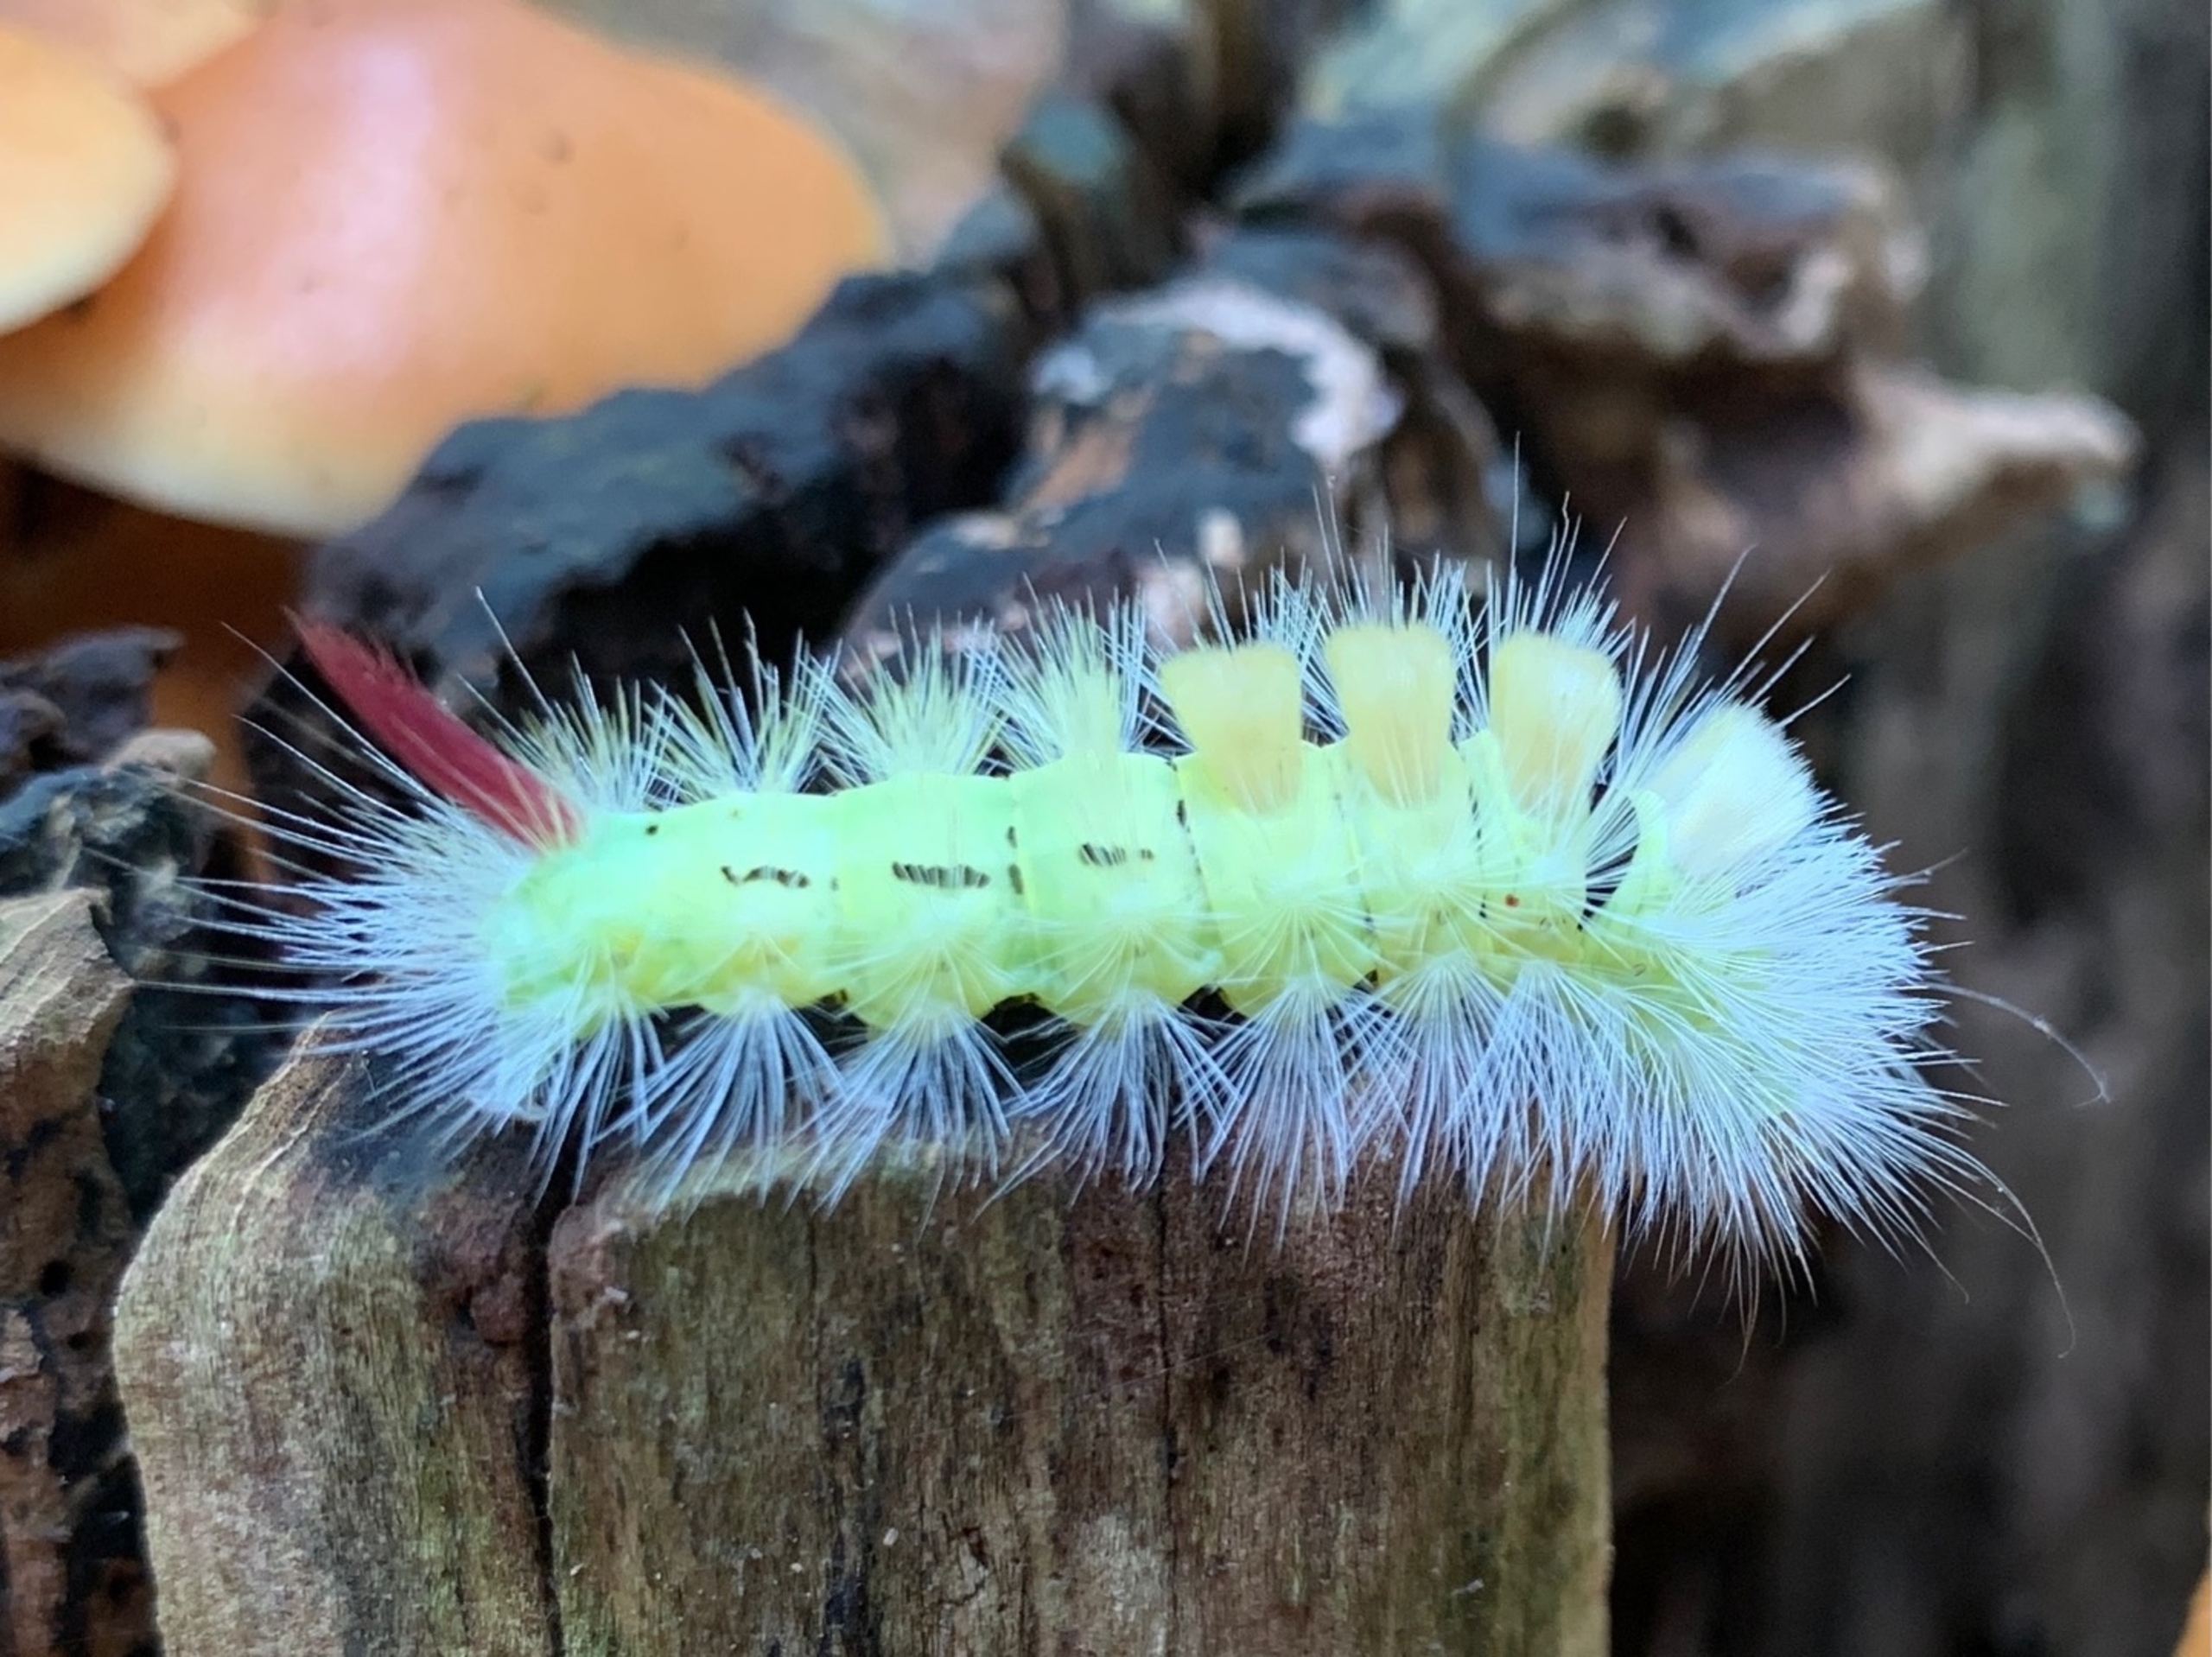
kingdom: Animalia
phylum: Arthropoda
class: Insecta
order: Lepidoptera
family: Erebidae
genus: Calliteara
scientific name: Calliteara pudibunda
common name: Bøgenonne
